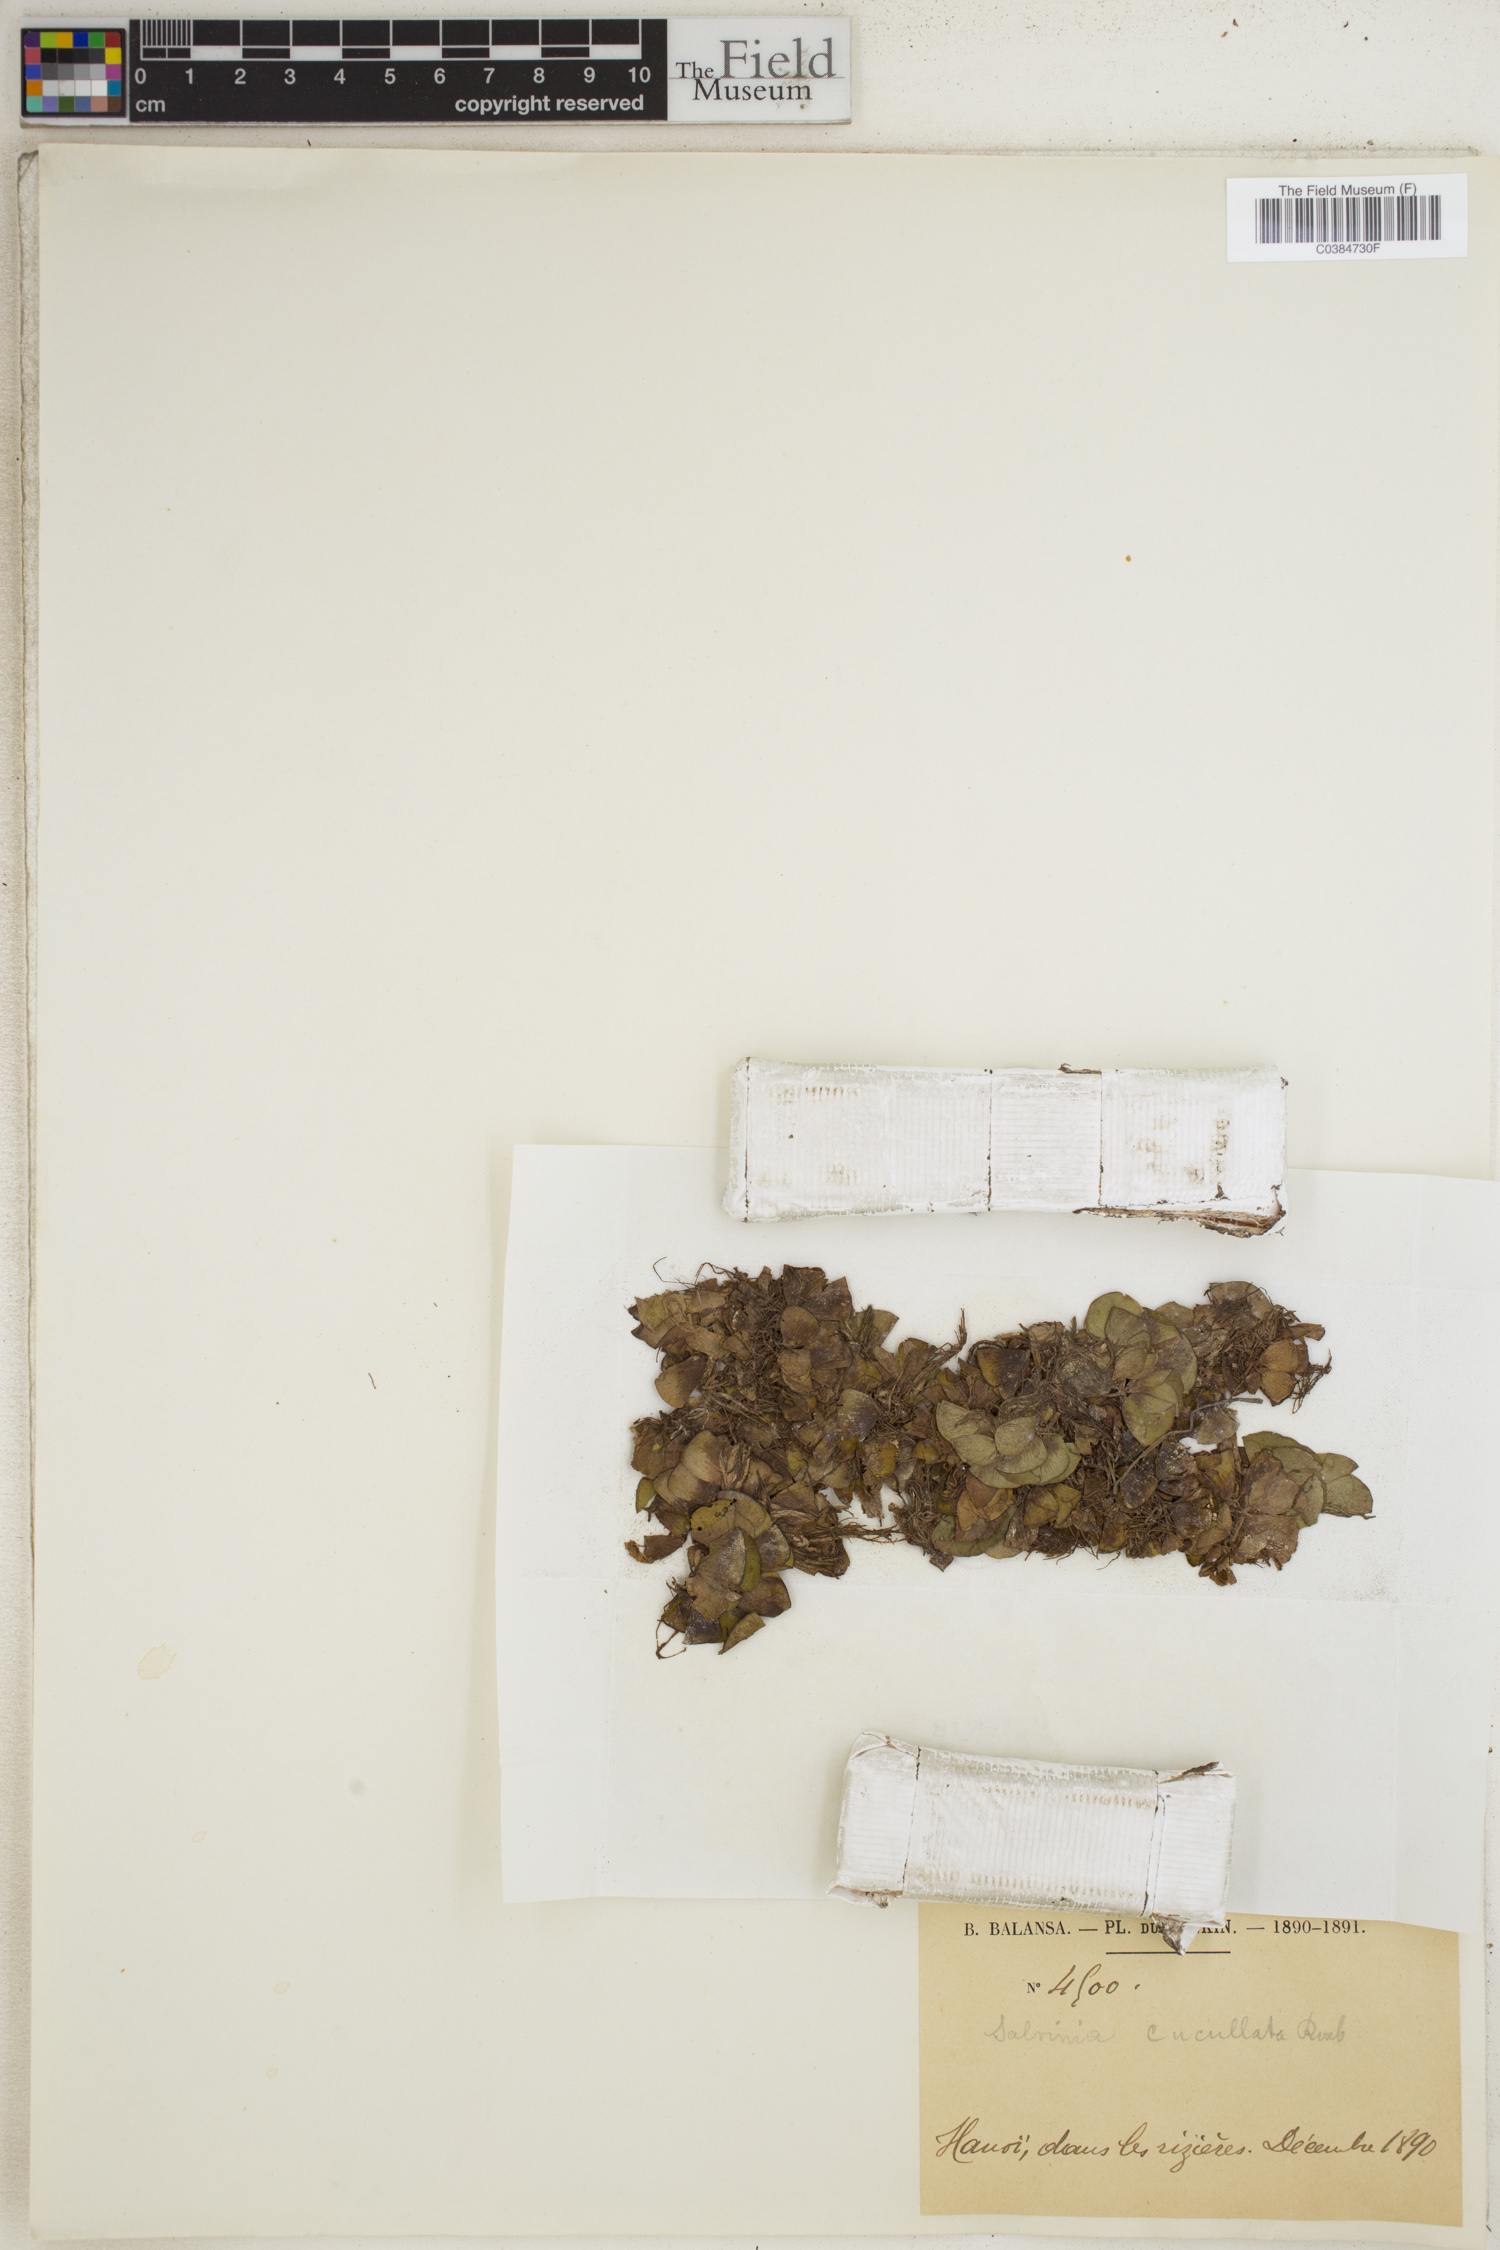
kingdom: Plantae
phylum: Tracheophyta
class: Polypodiopsida
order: Salviniales
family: Salviniaceae
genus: Salvinia
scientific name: Salvinia cucullata
